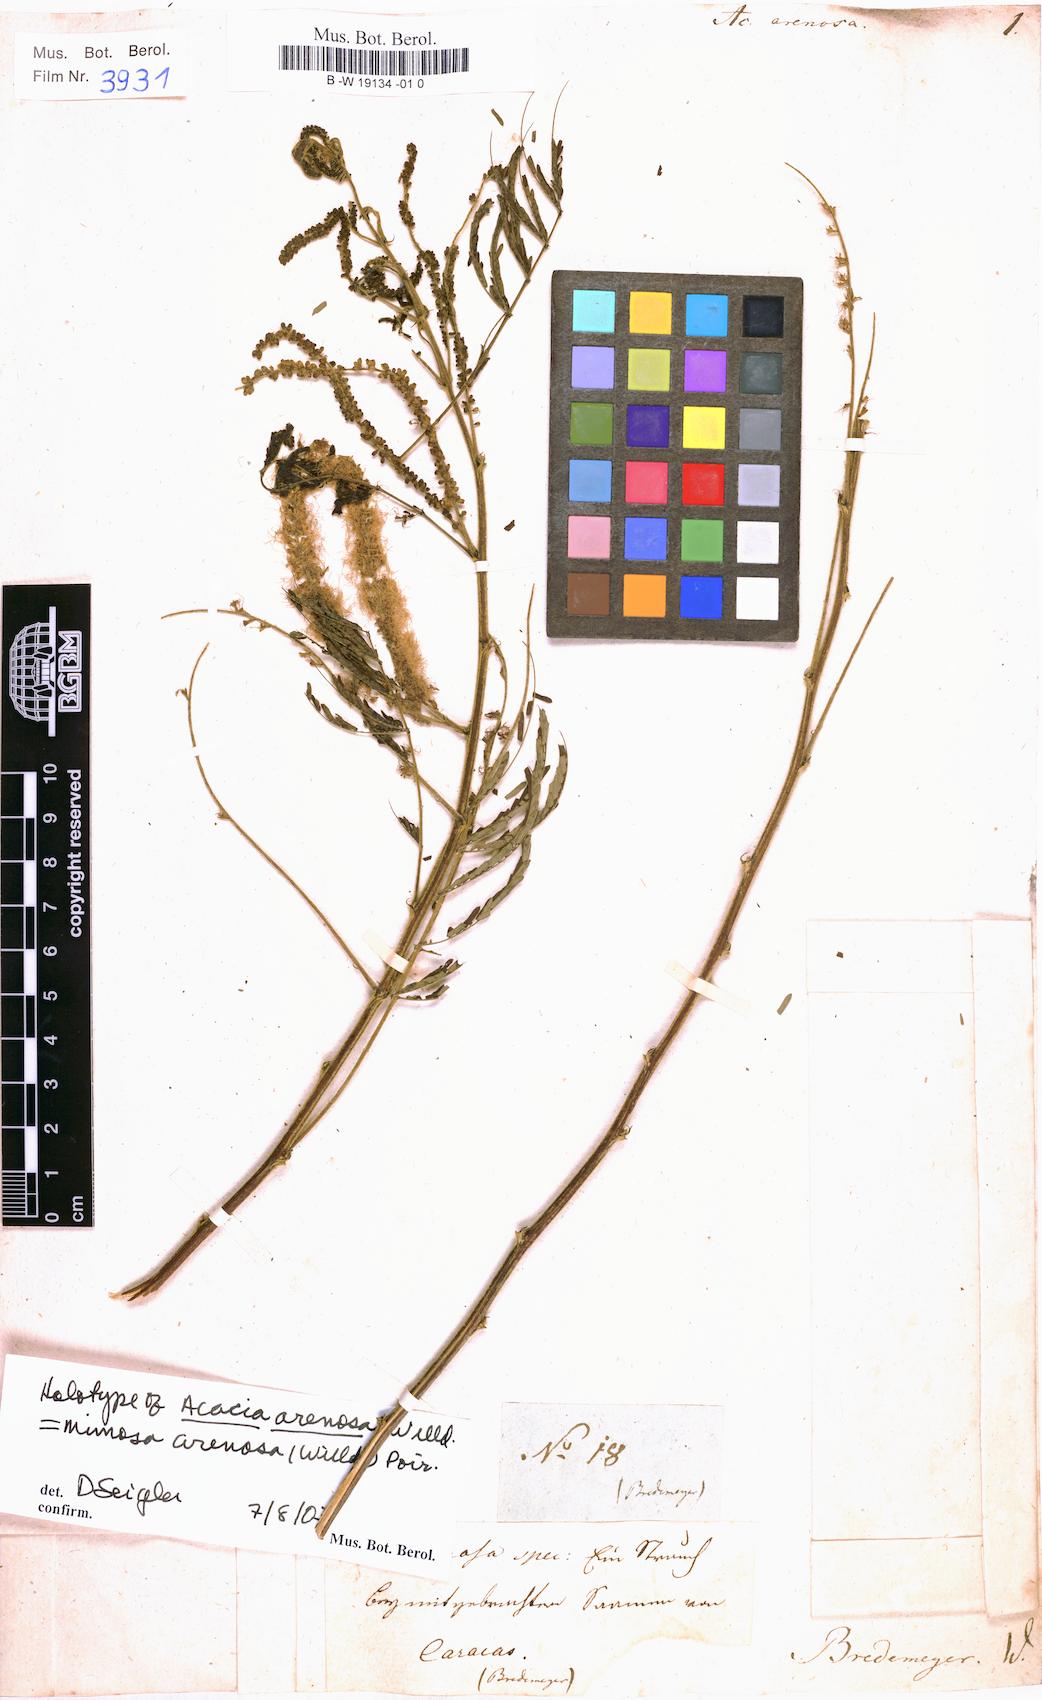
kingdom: Plantae
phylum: Tracheophyta
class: Magnoliopsida
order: Fabales
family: Fabaceae
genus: Mimosa
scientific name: Mimosa arenosa
